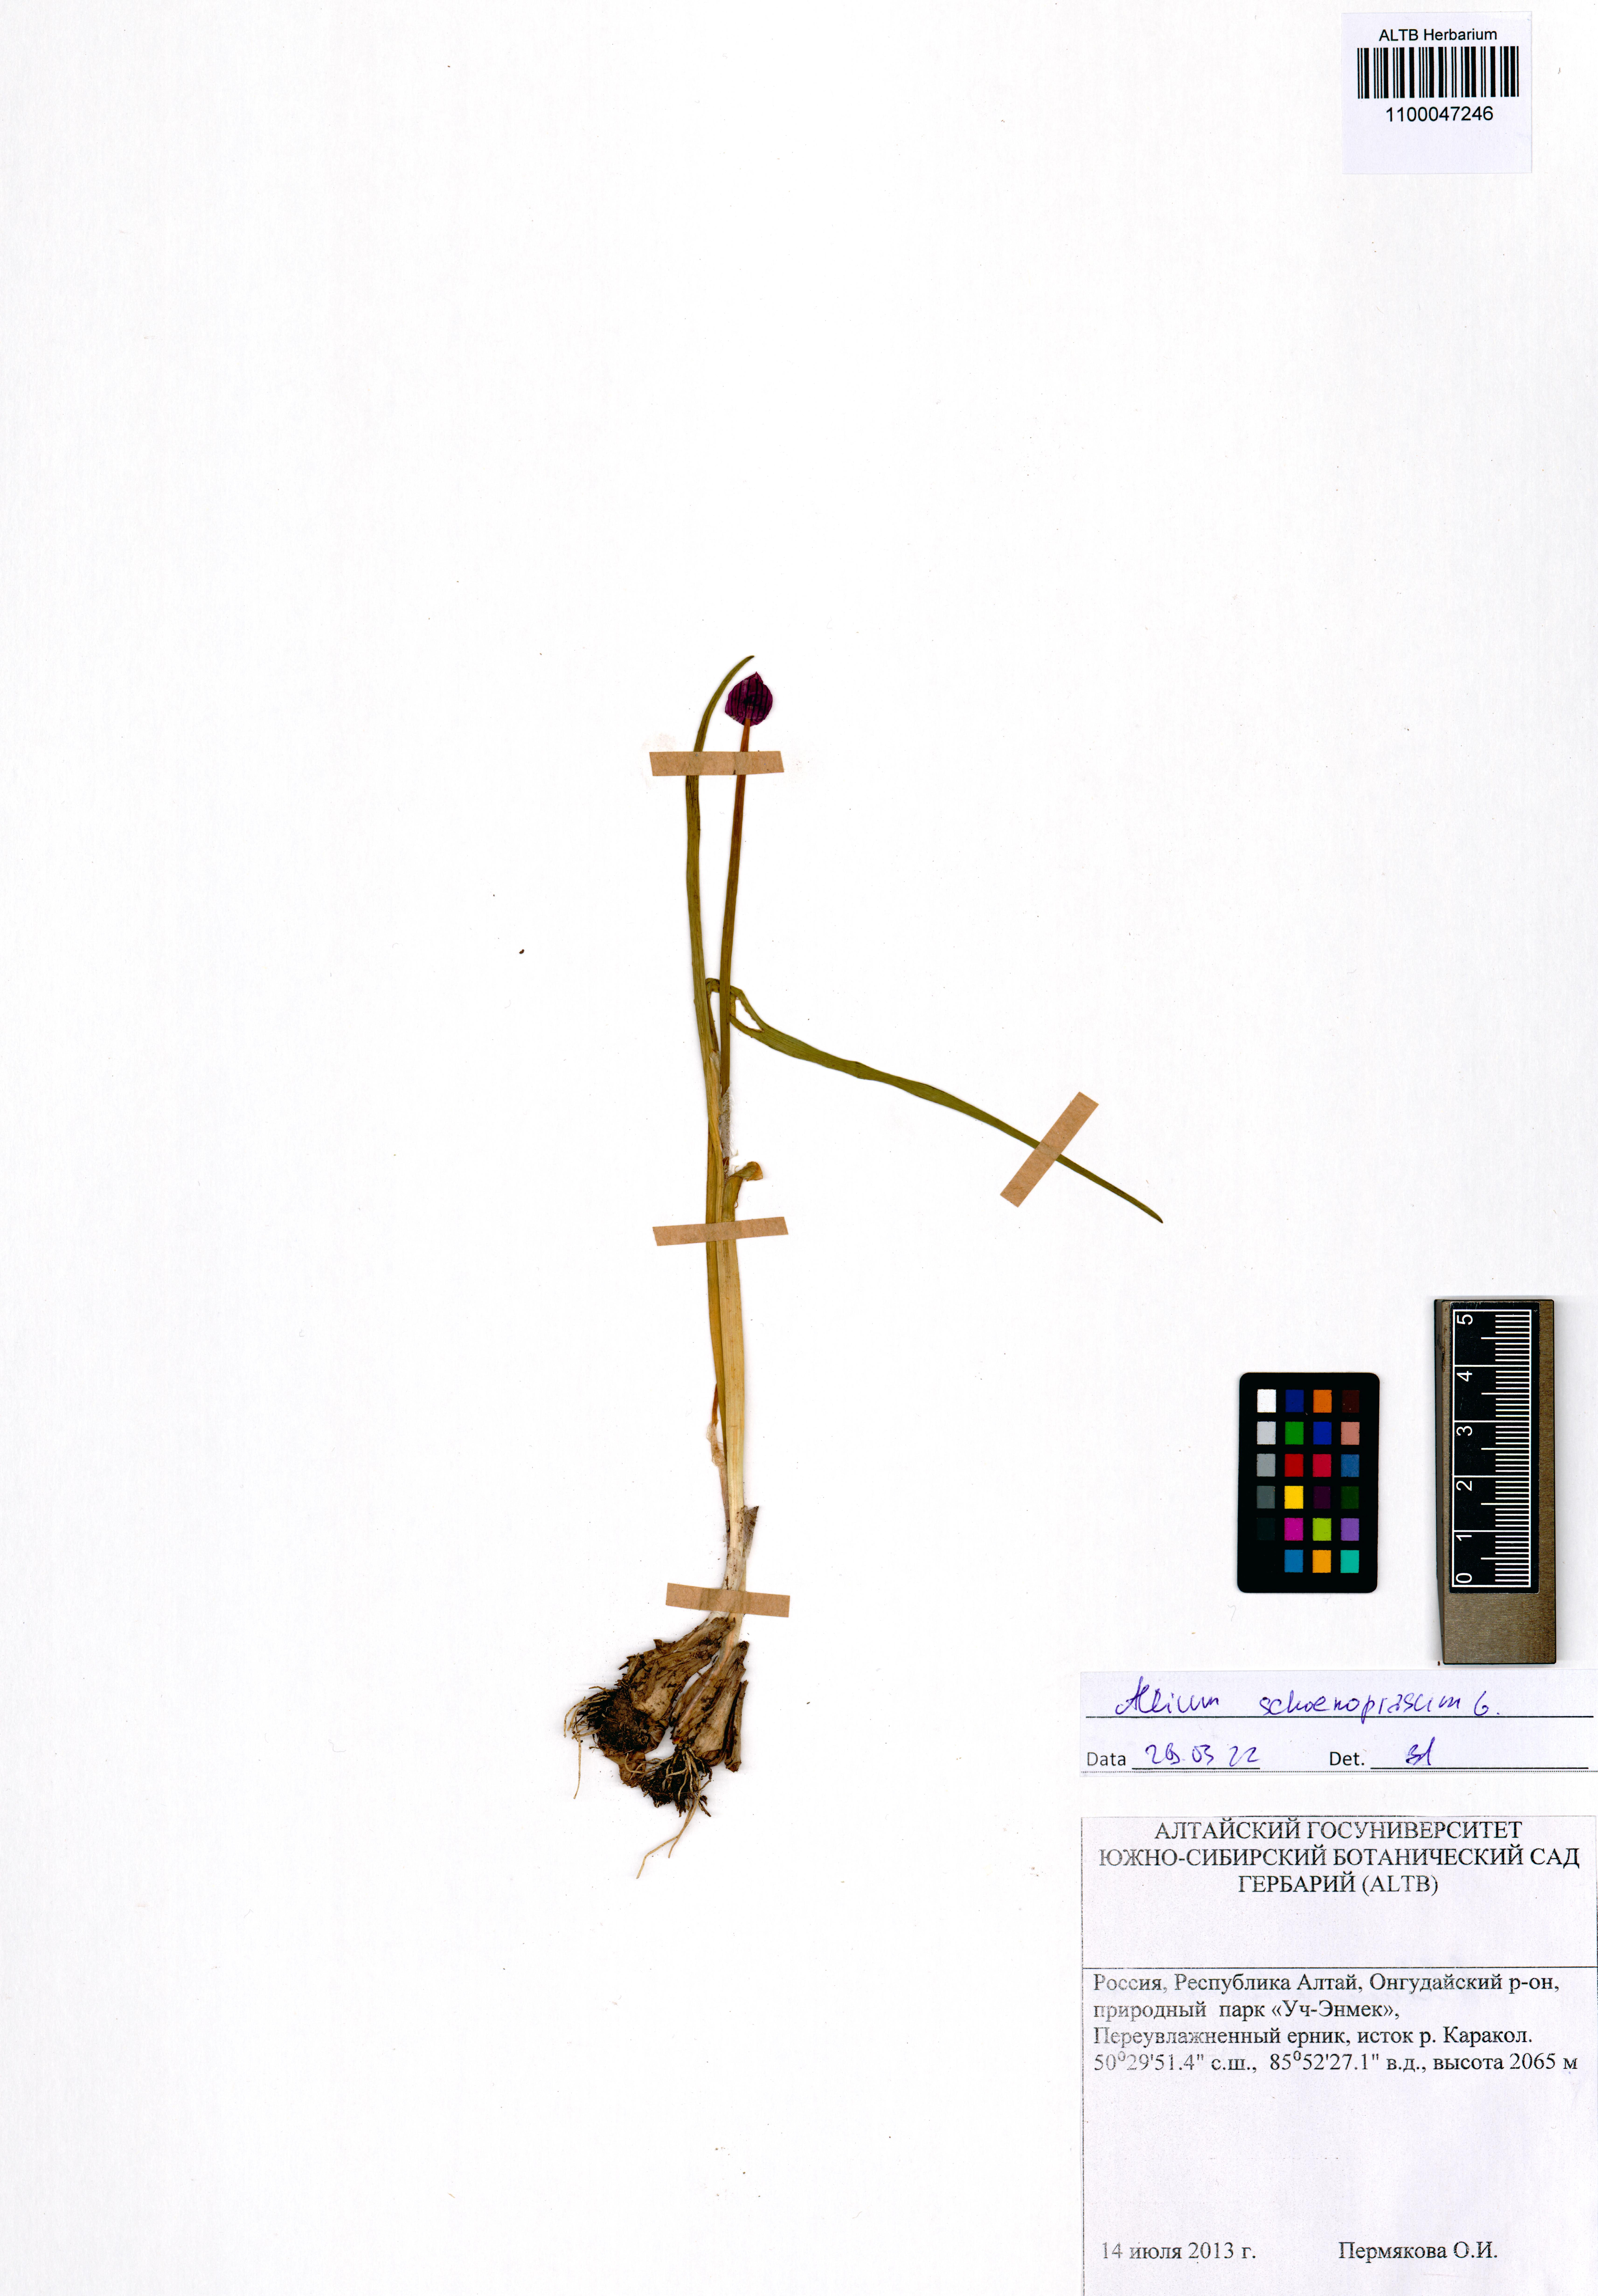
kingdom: Plantae
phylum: Tracheophyta
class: Liliopsida
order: Asparagales
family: Amaryllidaceae
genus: Allium
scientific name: Allium schoenoprasum
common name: Chives
